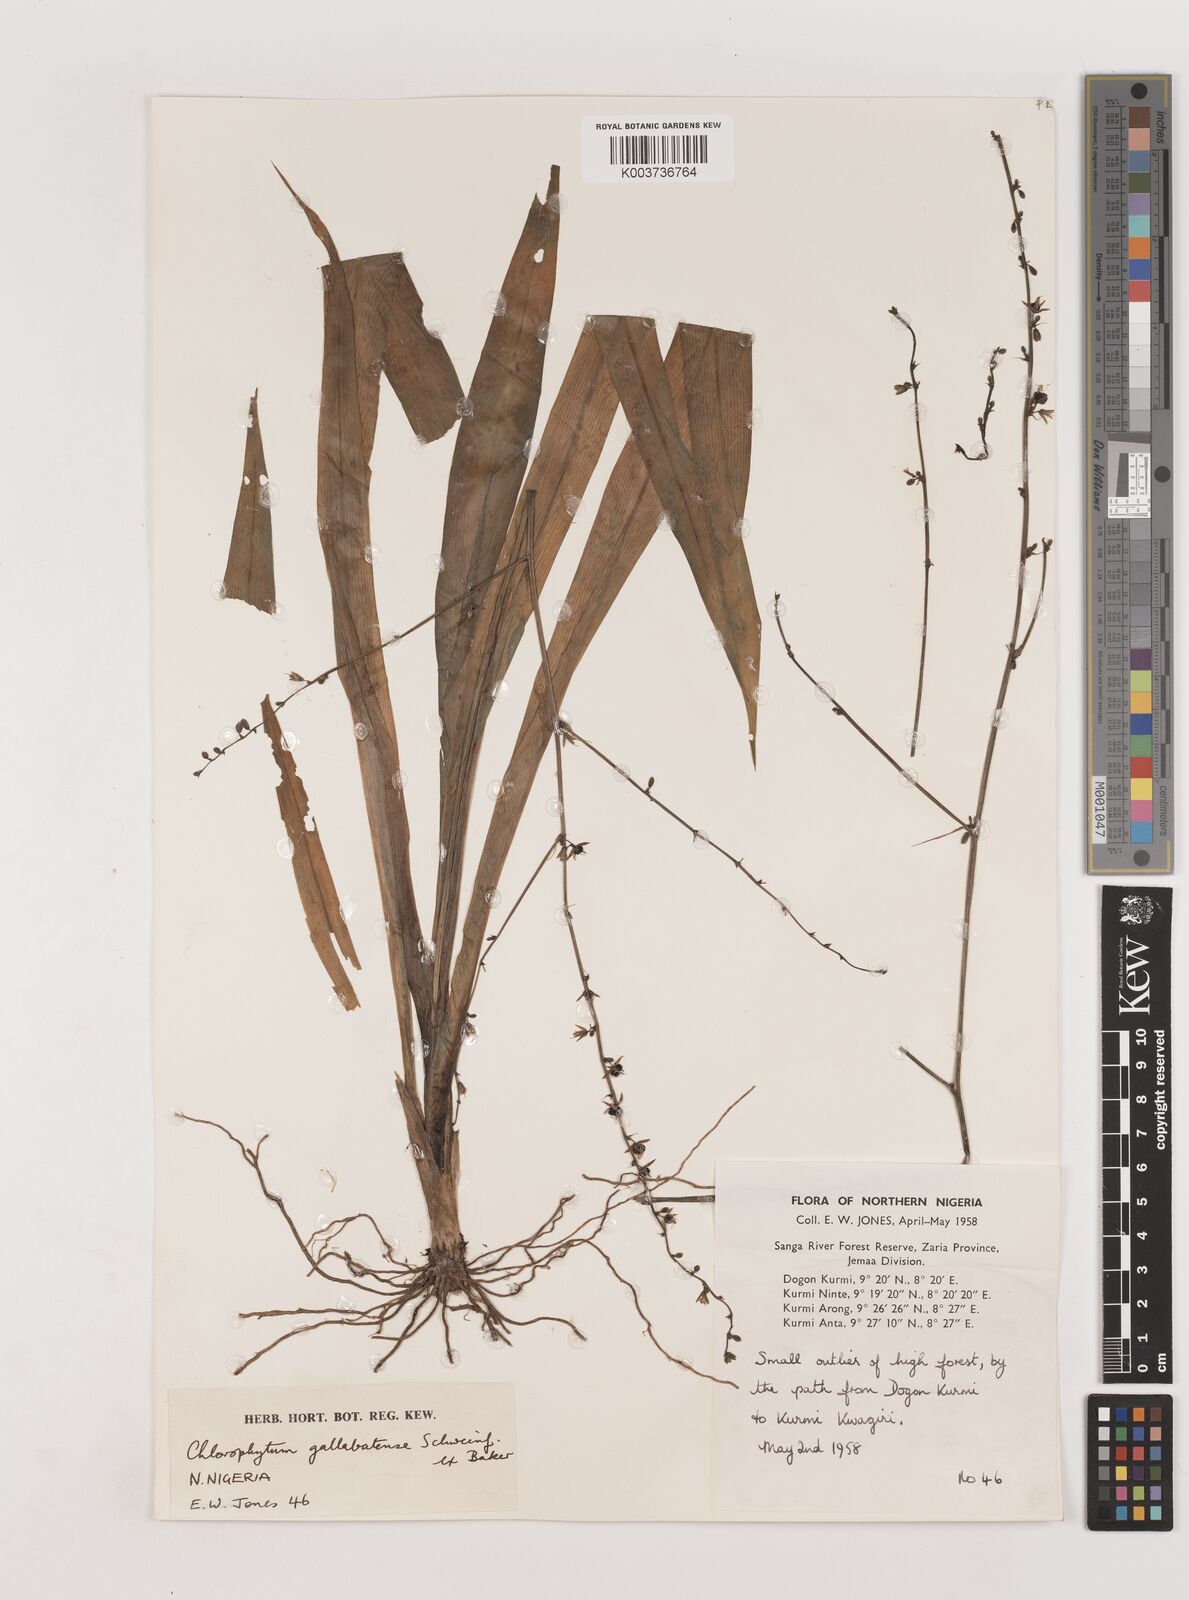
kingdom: Plantae
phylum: Tracheophyta
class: Liliopsida
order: Asparagales
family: Asparagaceae
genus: Chlorophytum
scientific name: Chlorophytum gallabatense
